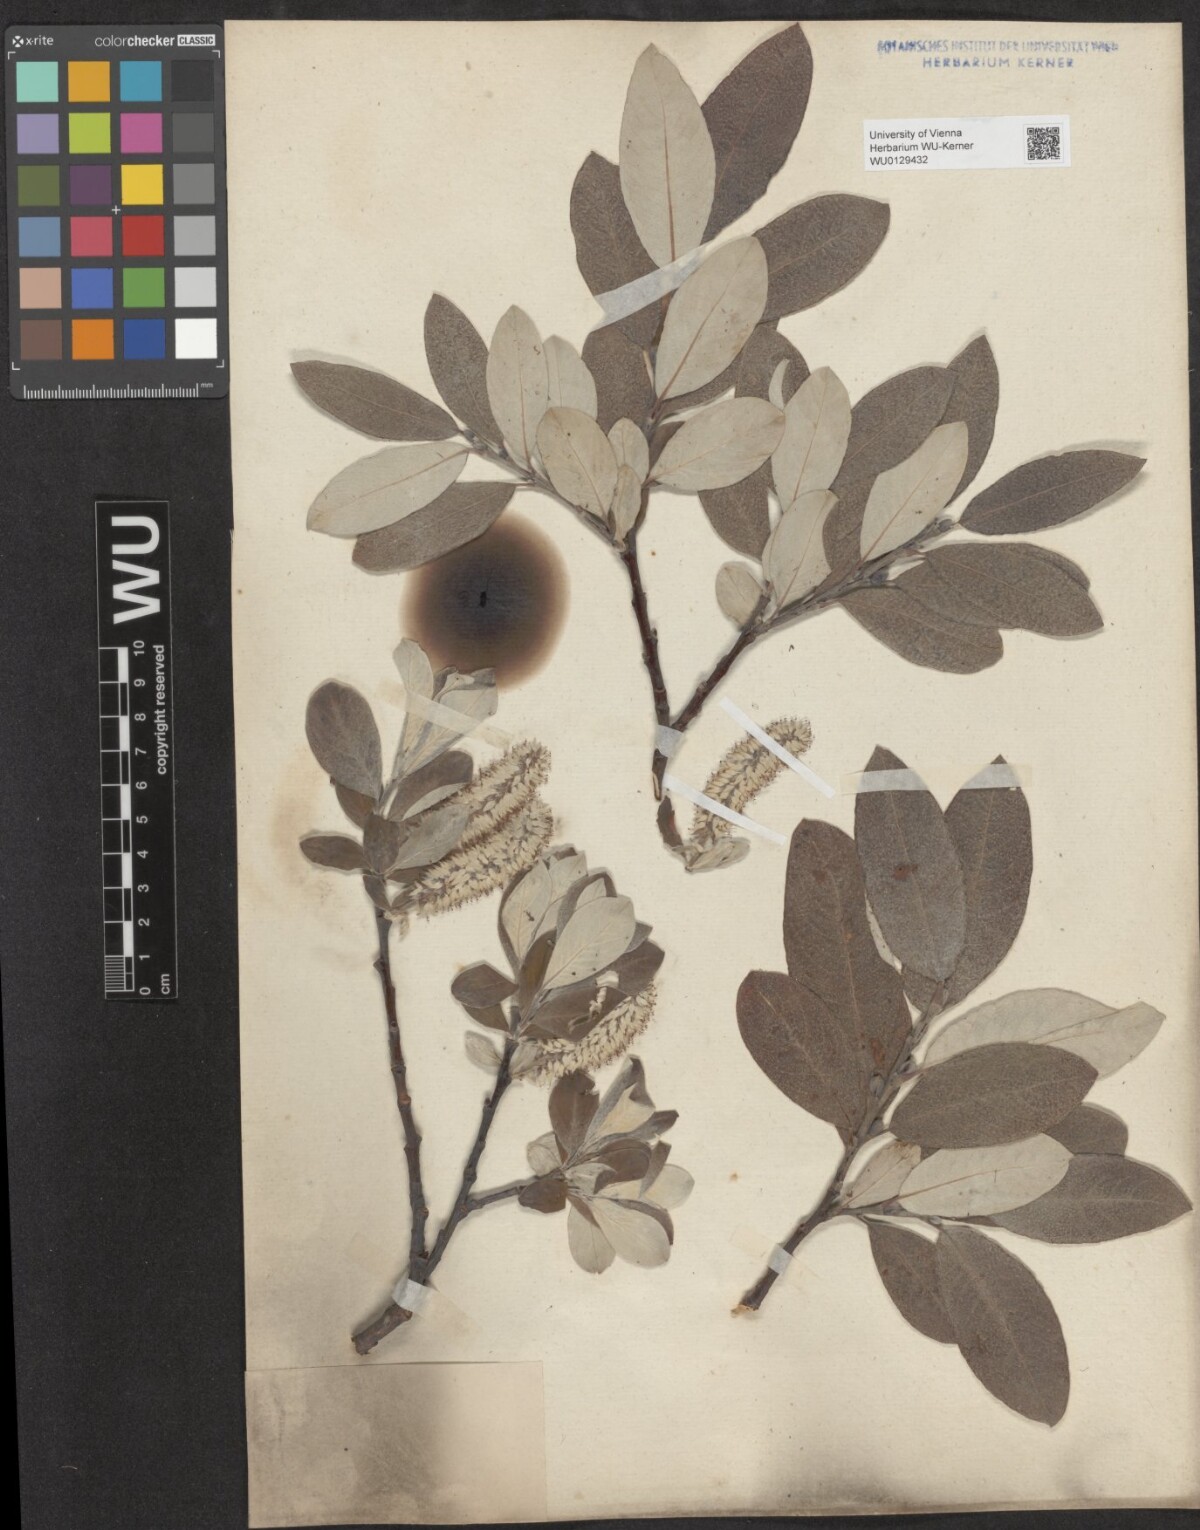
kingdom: Plantae
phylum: Tracheophyta
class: Magnoliopsida
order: Malpighiales
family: Salicaceae
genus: Salix
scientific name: Salix helvetica
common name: Swiss willow
